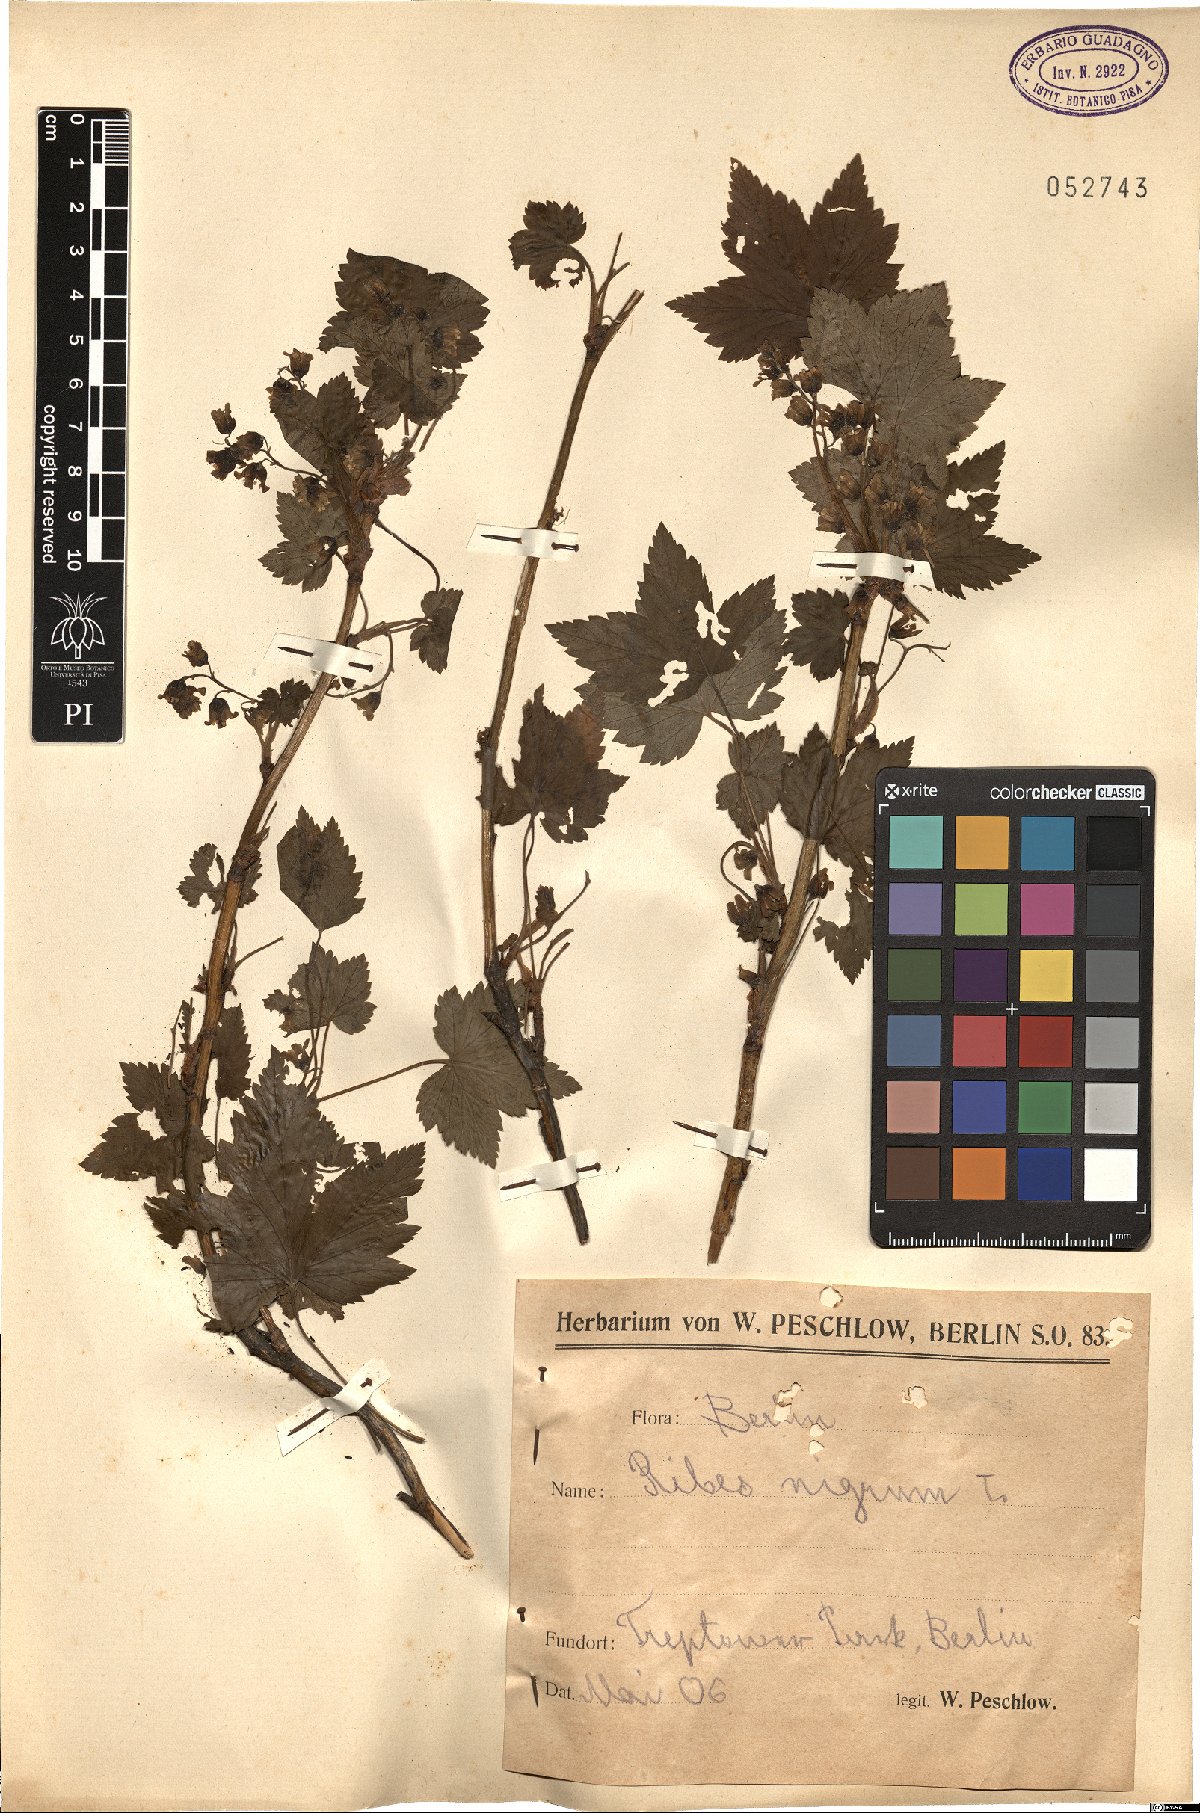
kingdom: Plantae
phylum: Tracheophyta
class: Magnoliopsida
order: Saxifragales
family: Grossulariaceae
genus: Ribes
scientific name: Ribes nigrum
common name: Black currant
